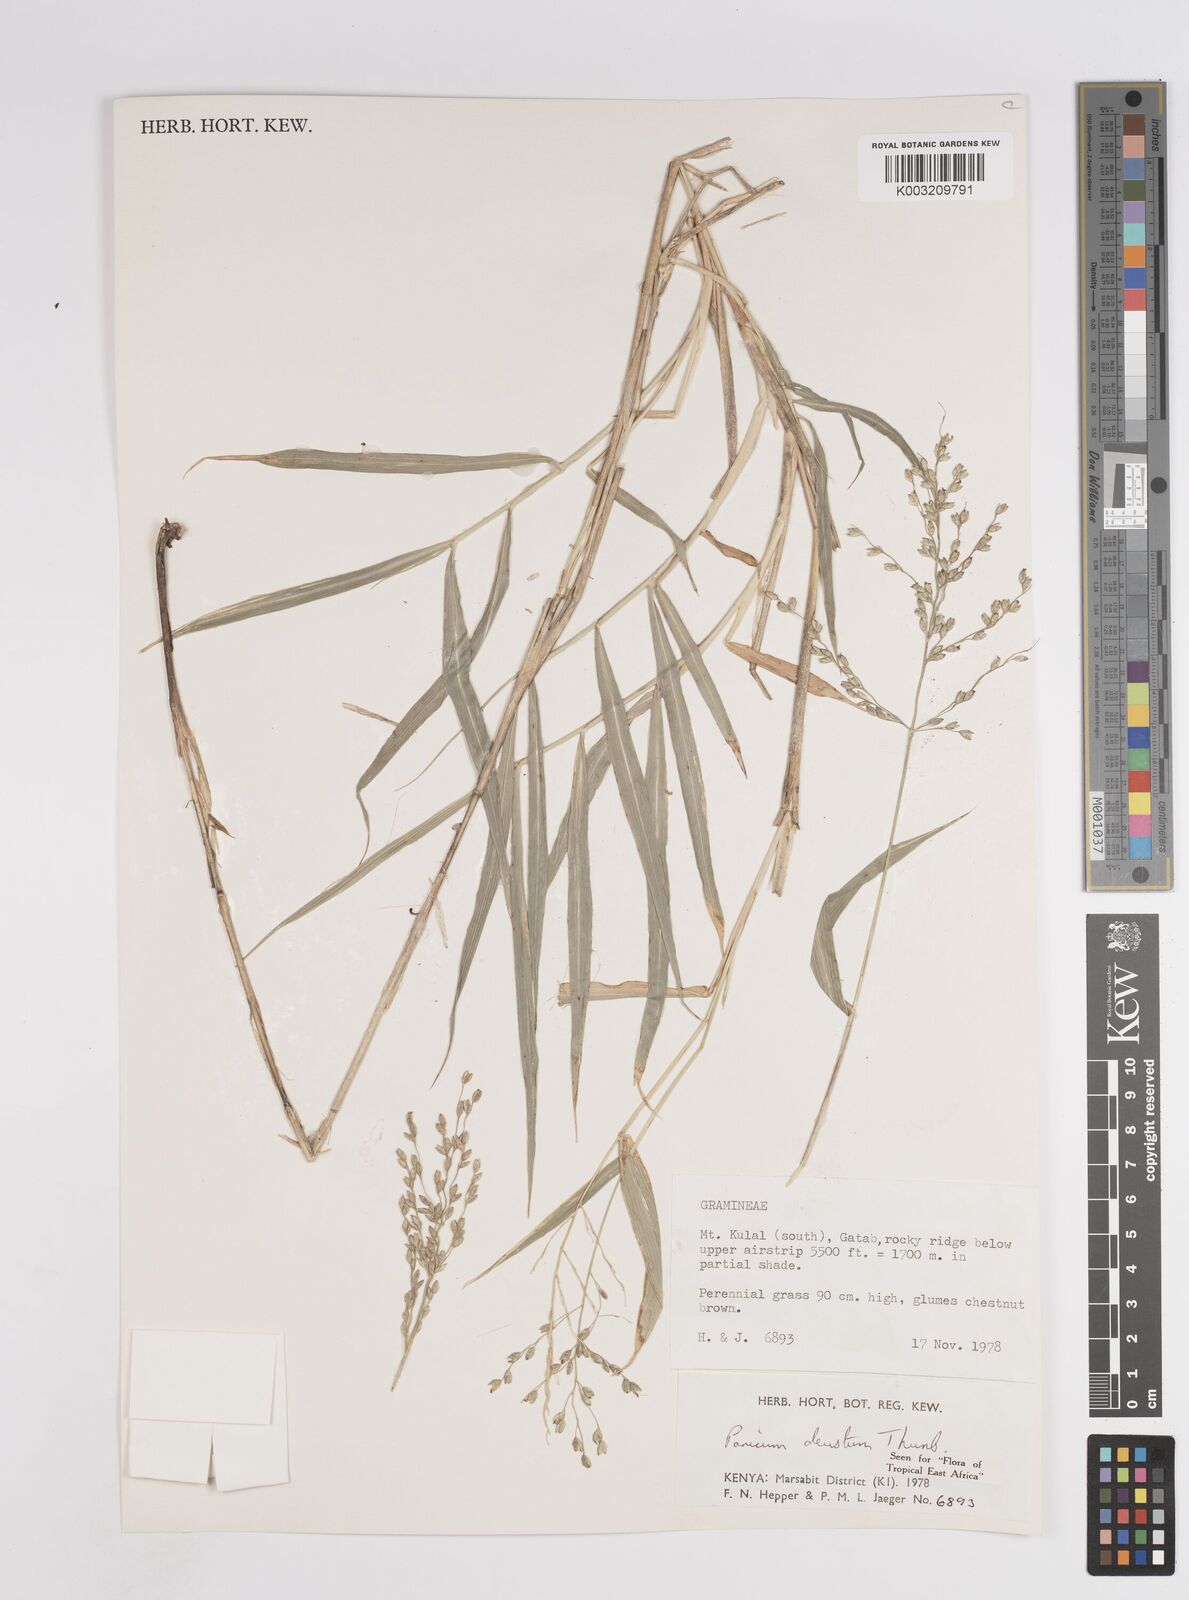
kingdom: Plantae
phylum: Tracheophyta
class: Liliopsida
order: Poales
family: Poaceae
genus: Panicum
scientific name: Panicum deustum
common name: Reed panicum
